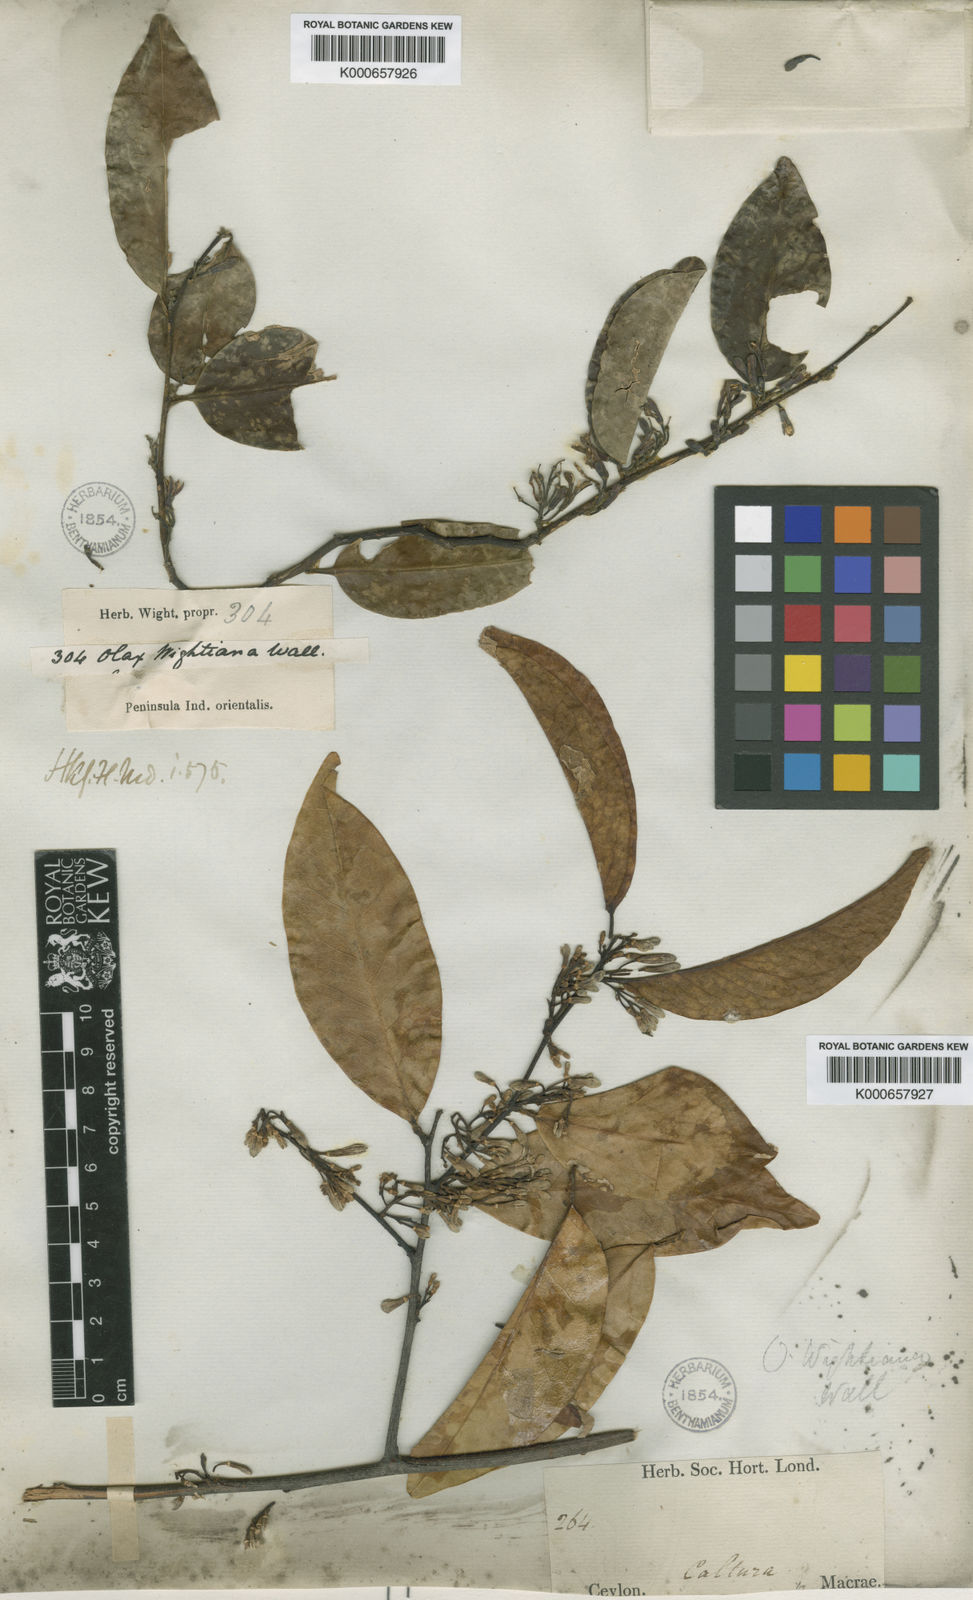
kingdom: Plantae
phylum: Tracheophyta
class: Magnoliopsida
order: Santalales
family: Olacaceae
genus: Olax
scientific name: Olax imbricata
